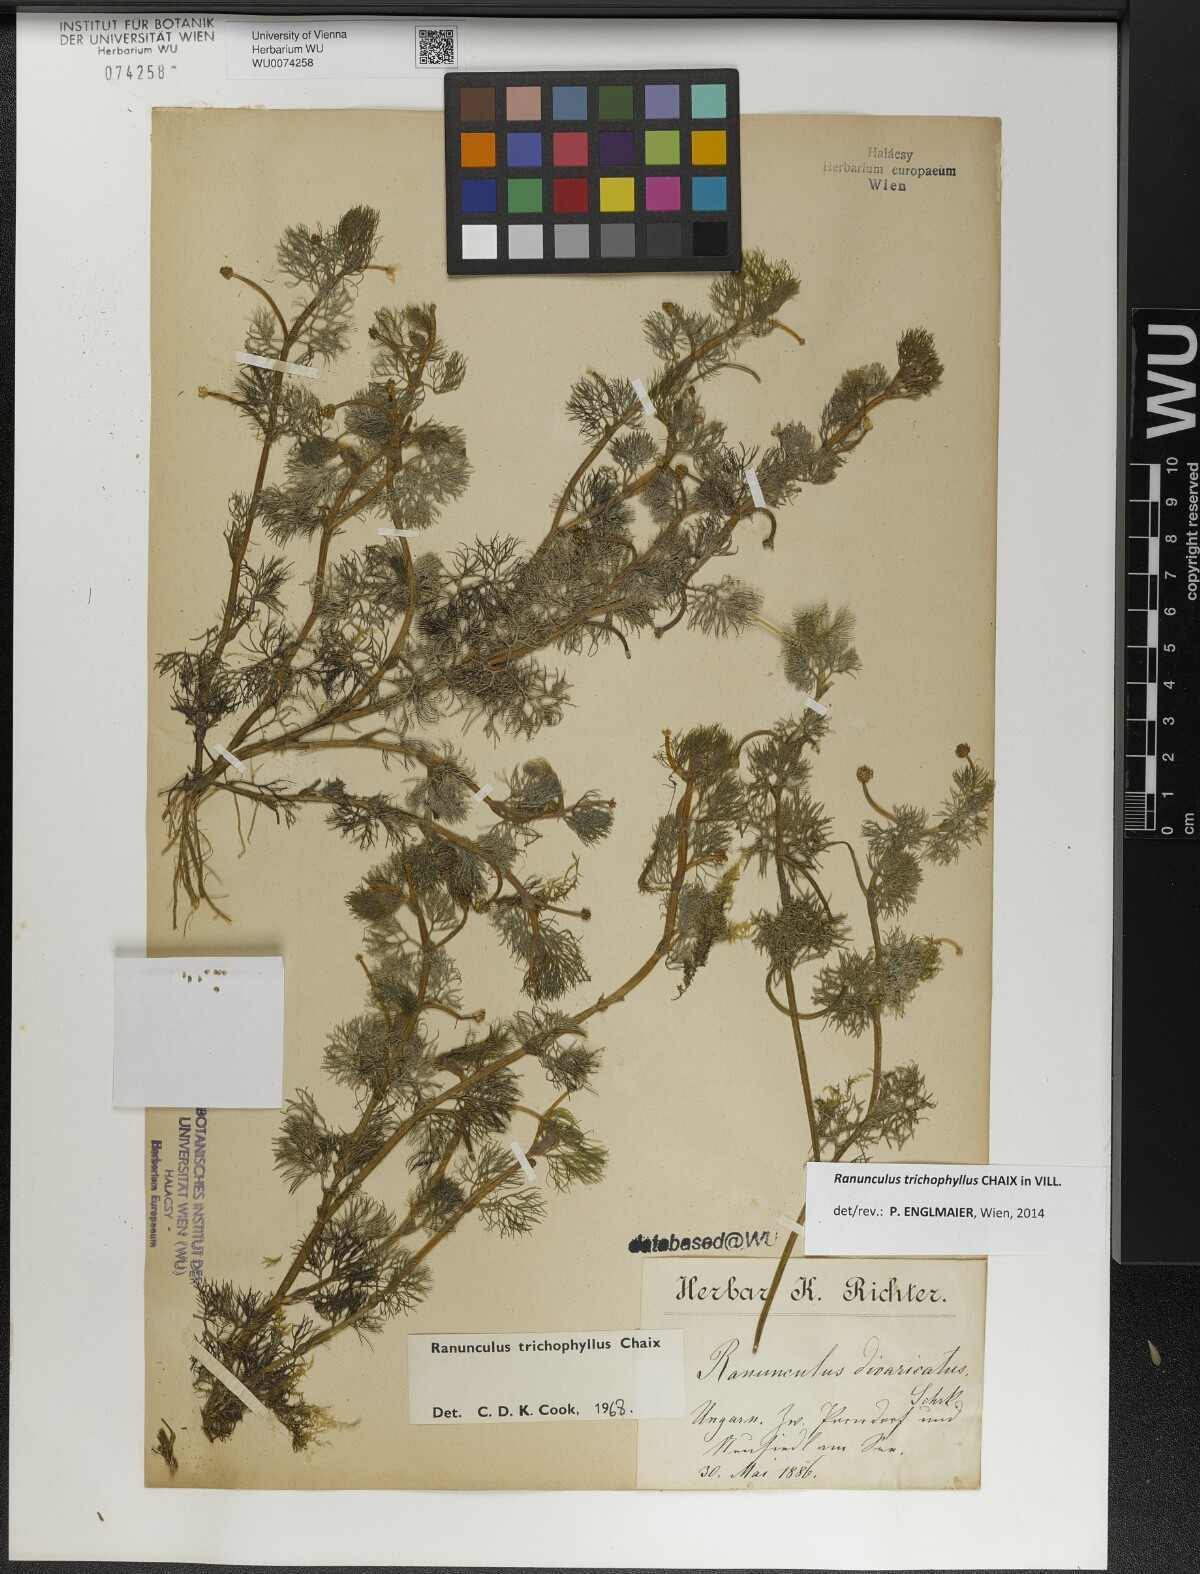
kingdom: Plantae
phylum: Tracheophyta
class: Magnoliopsida
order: Ranunculales
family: Ranunculaceae
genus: Ranunculus
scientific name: Ranunculus trichophyllus
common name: Thread-leaved water-crowfoot
